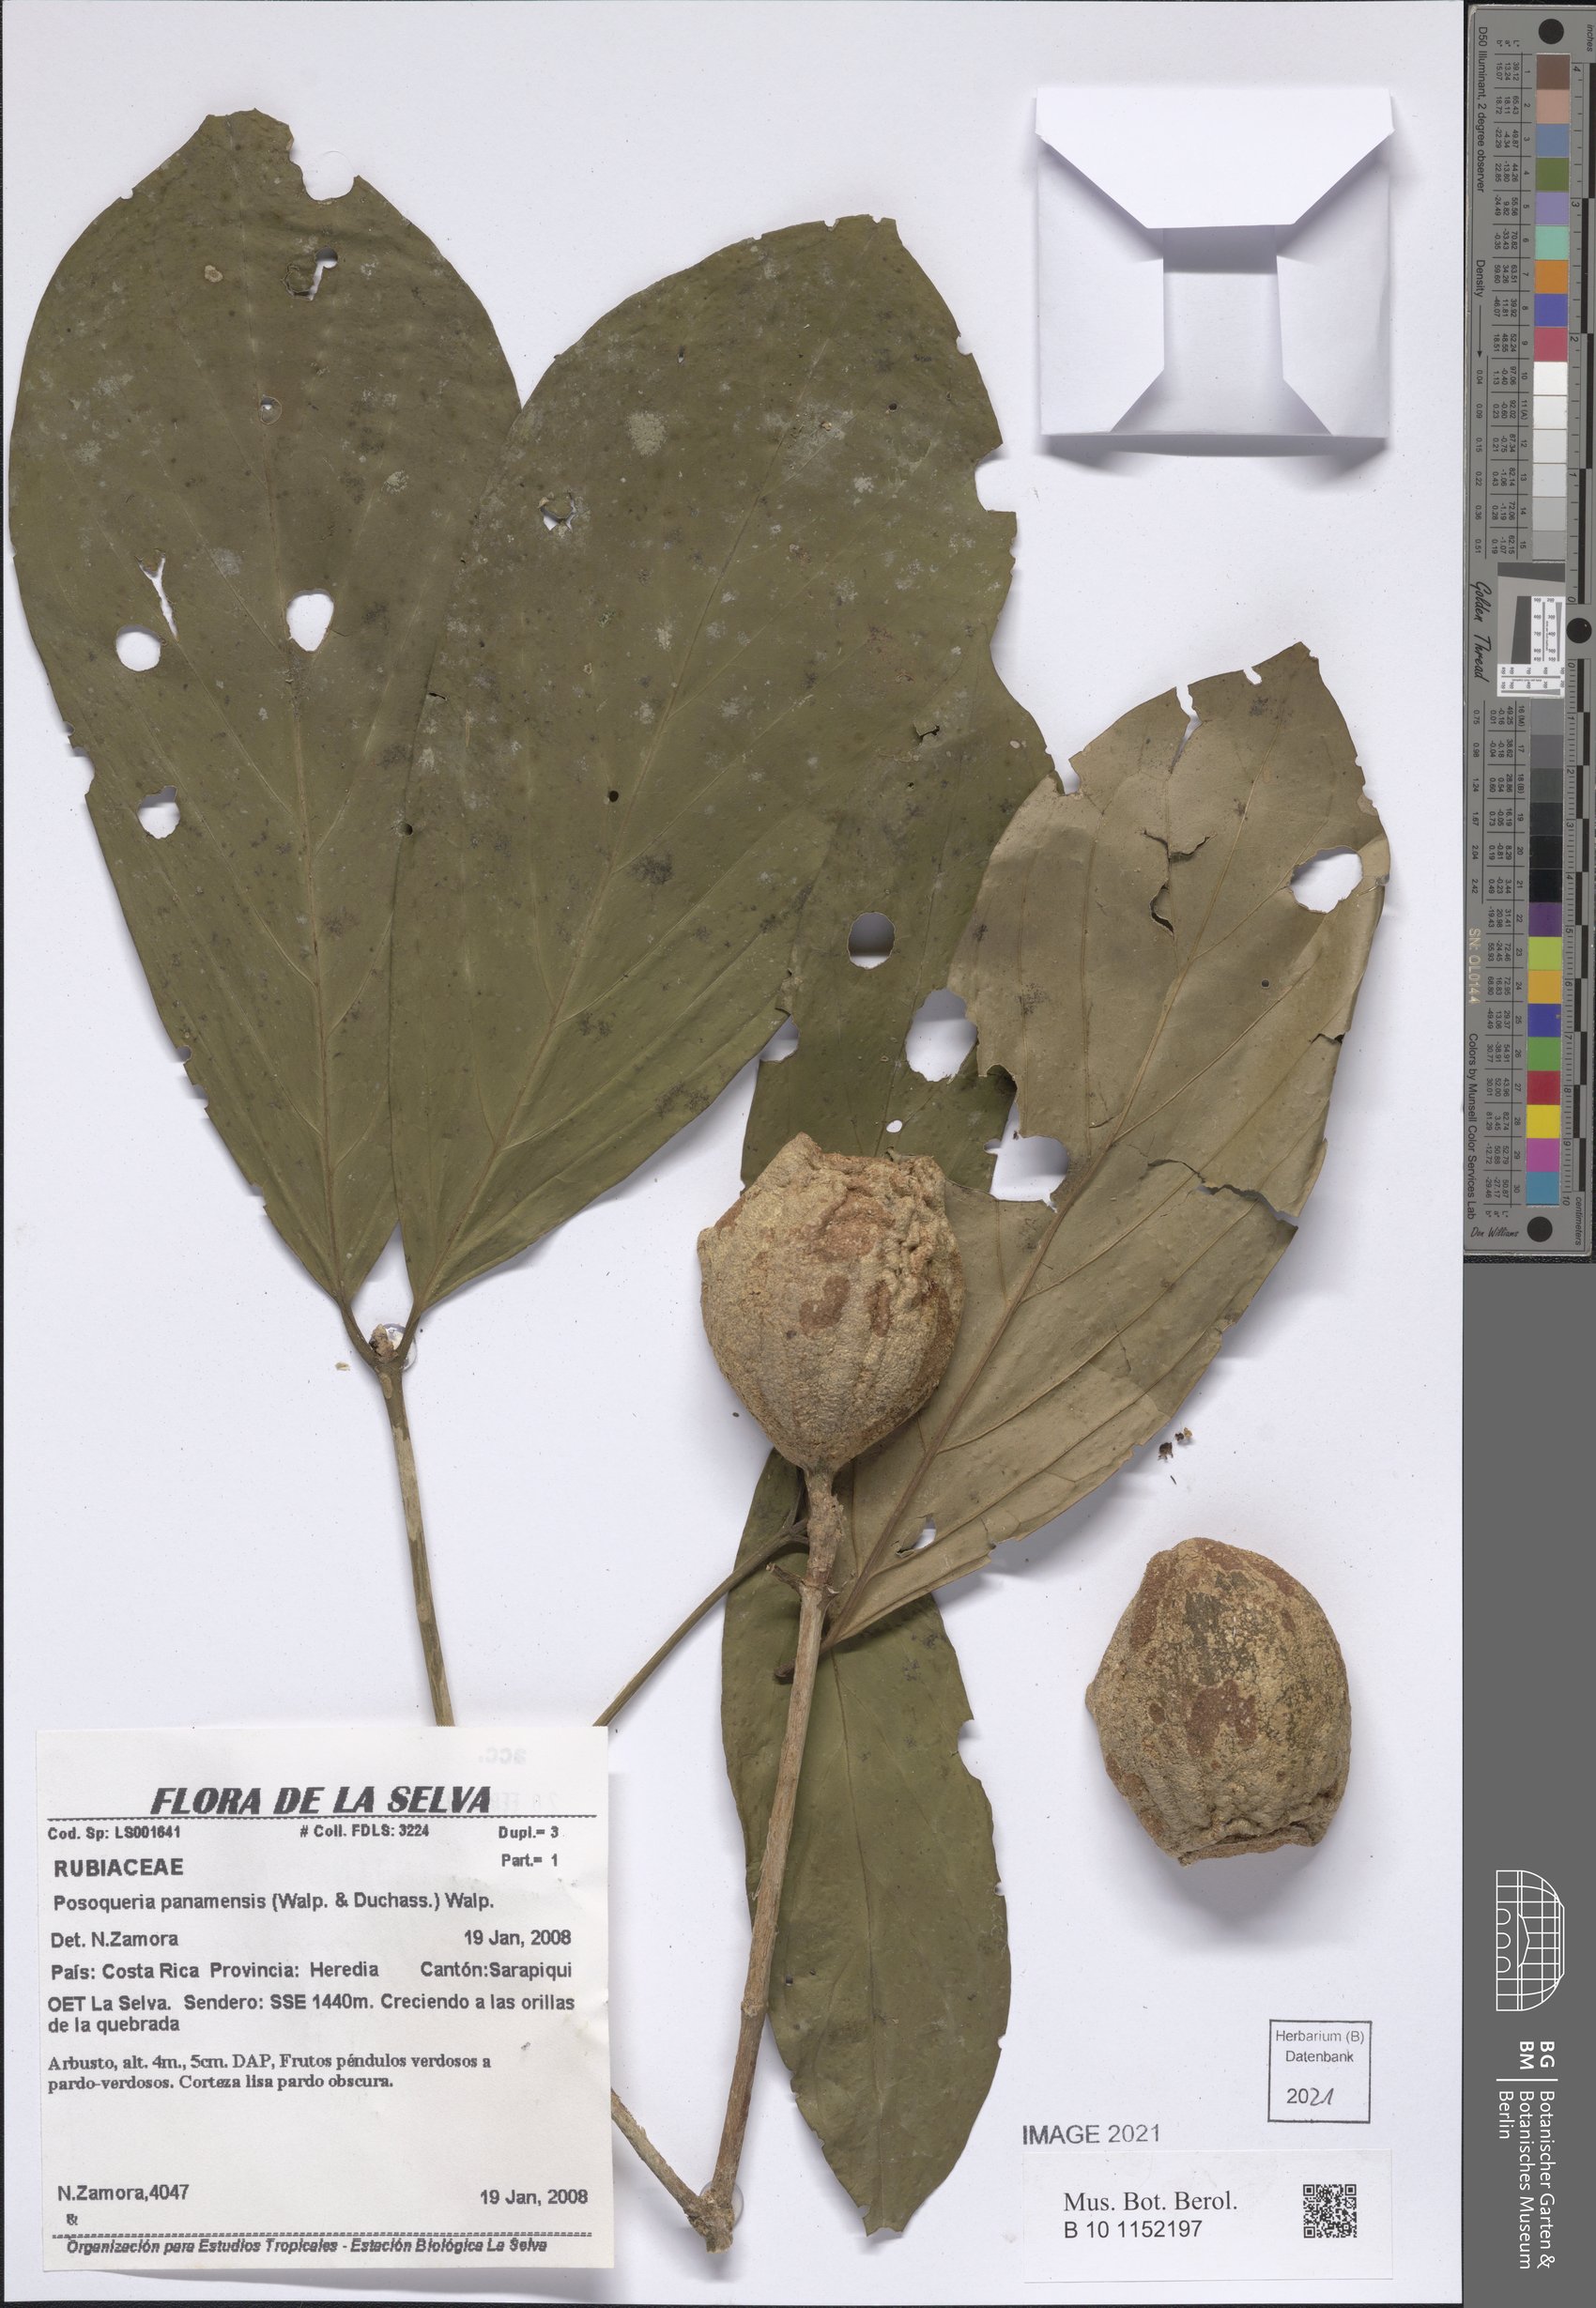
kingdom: Plantae
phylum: Tracheophyta
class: Magnoliopsida
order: Gentianales
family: Rubiaceae
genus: Posoqueria
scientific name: Posoqueria grandifructa
